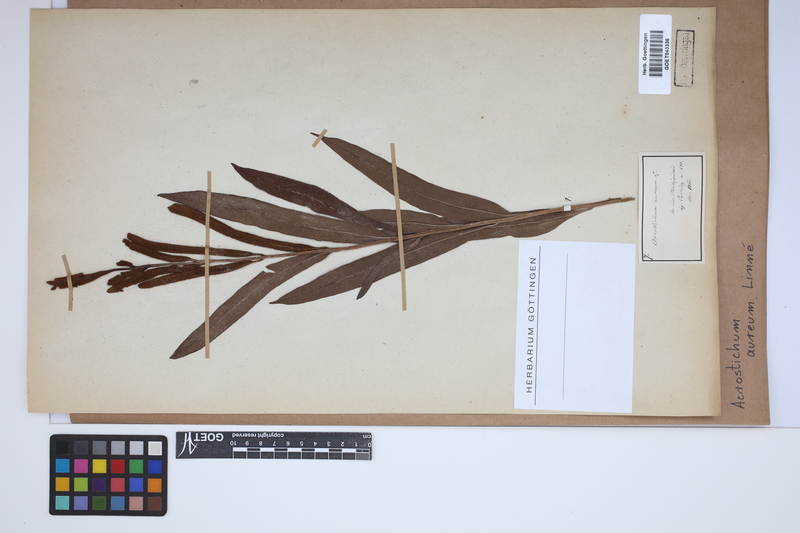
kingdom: Plantae
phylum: Tracheophyta
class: Polypodiopsida
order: Polypodiales
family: Pteridaceae
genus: Acrostichum
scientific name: Acrostichum aureum
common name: Leather fern
